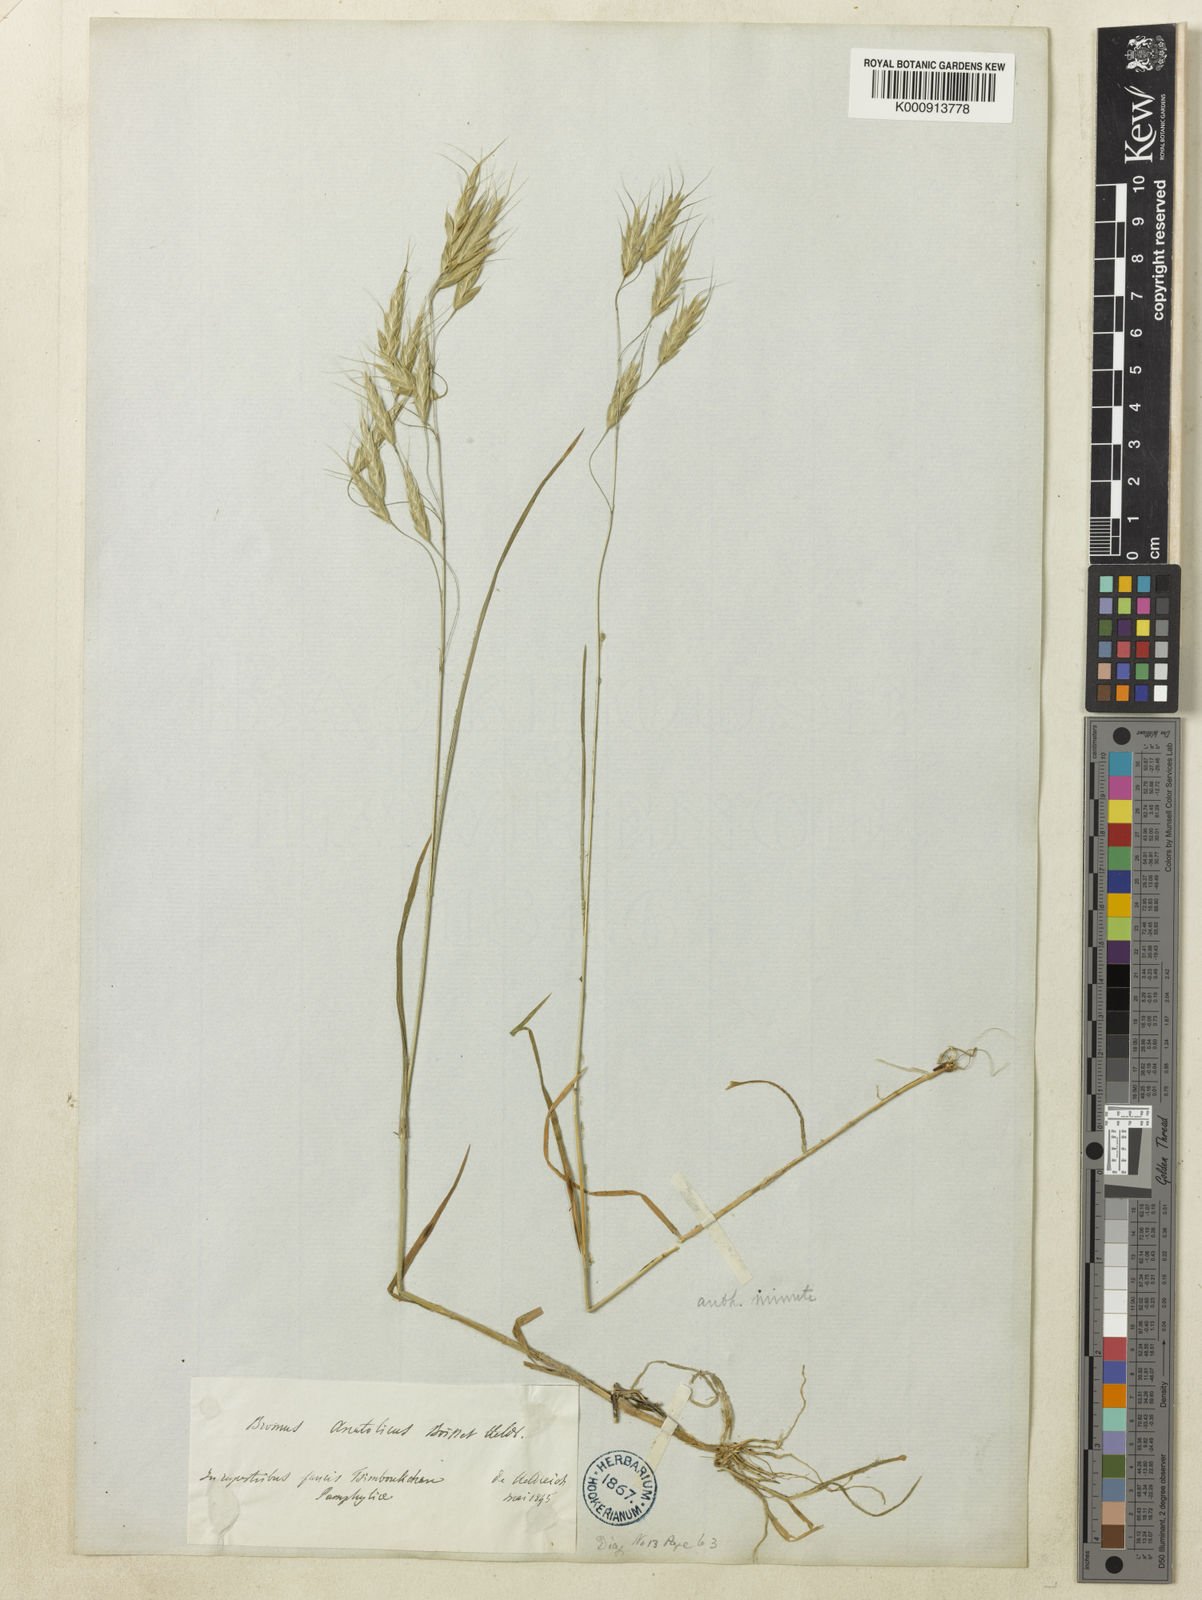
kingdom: Plantae
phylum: Tracheophyta
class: Liliopsida
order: Poales
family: Poaceae
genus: Bromus
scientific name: Bromus
